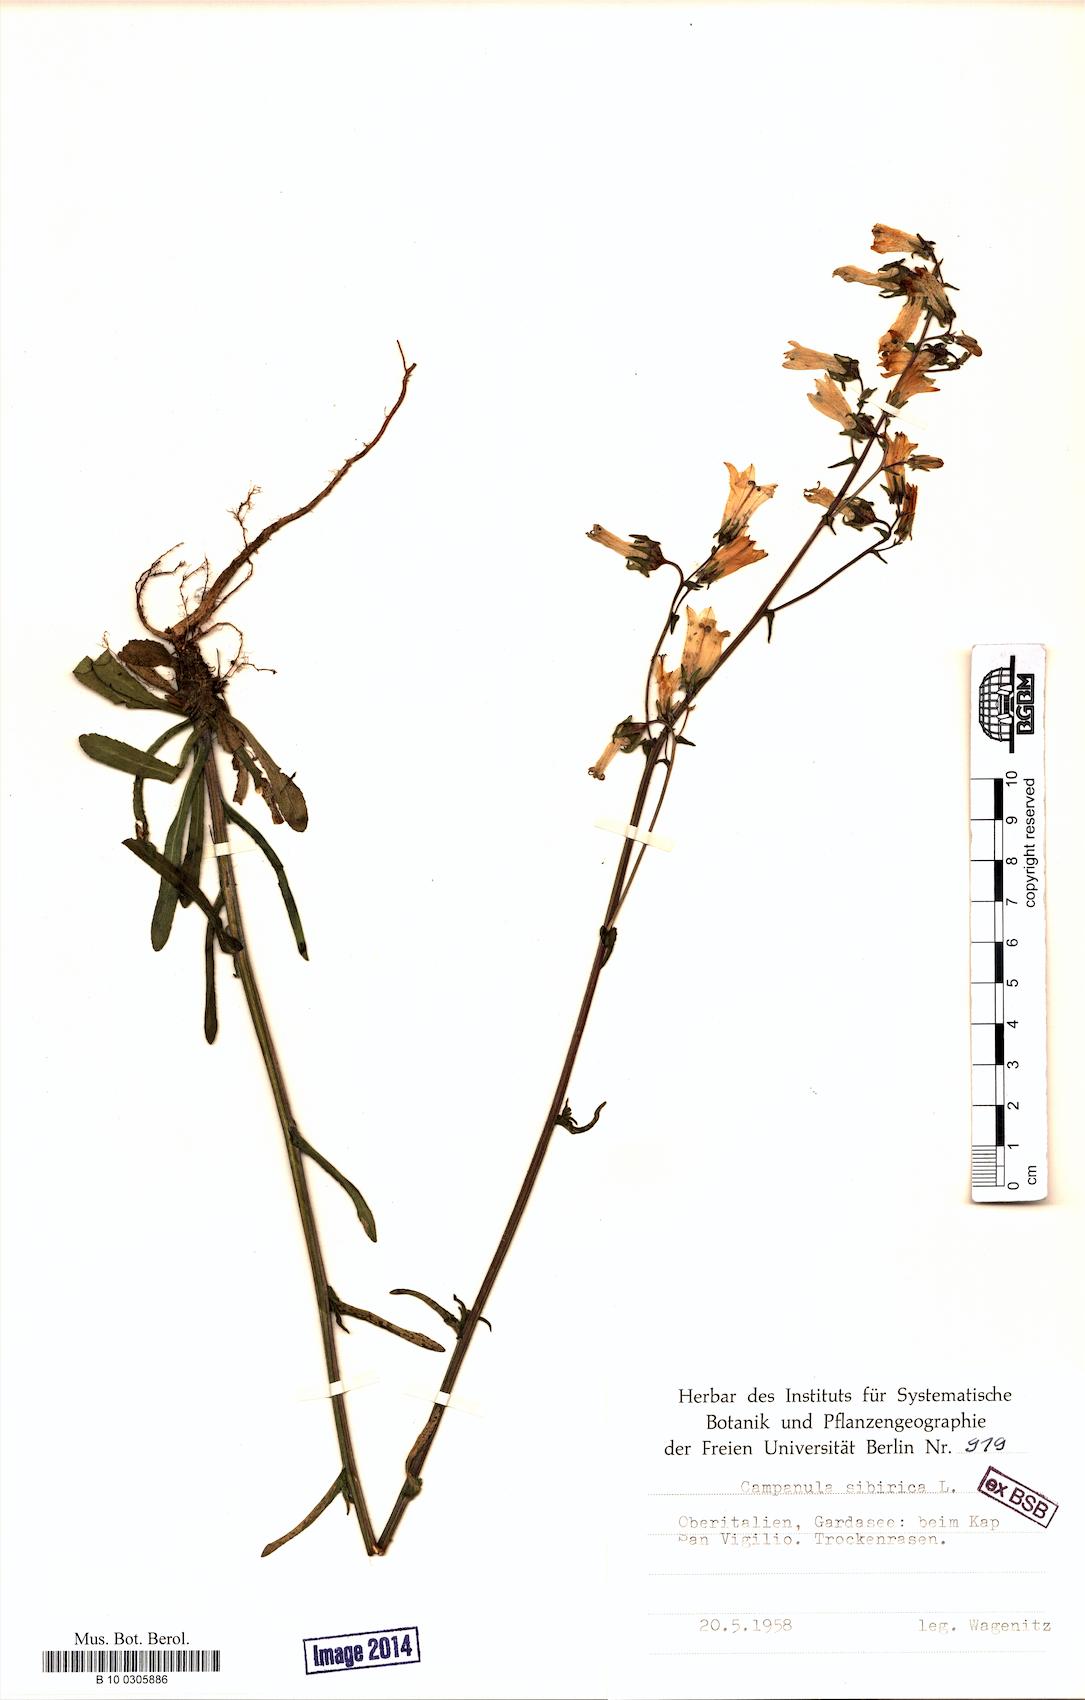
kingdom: Plantae
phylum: Tracheophyta
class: Magnoliopsida
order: Asterales
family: Campanulaceae
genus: Campanula
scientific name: Campanula sibirica
